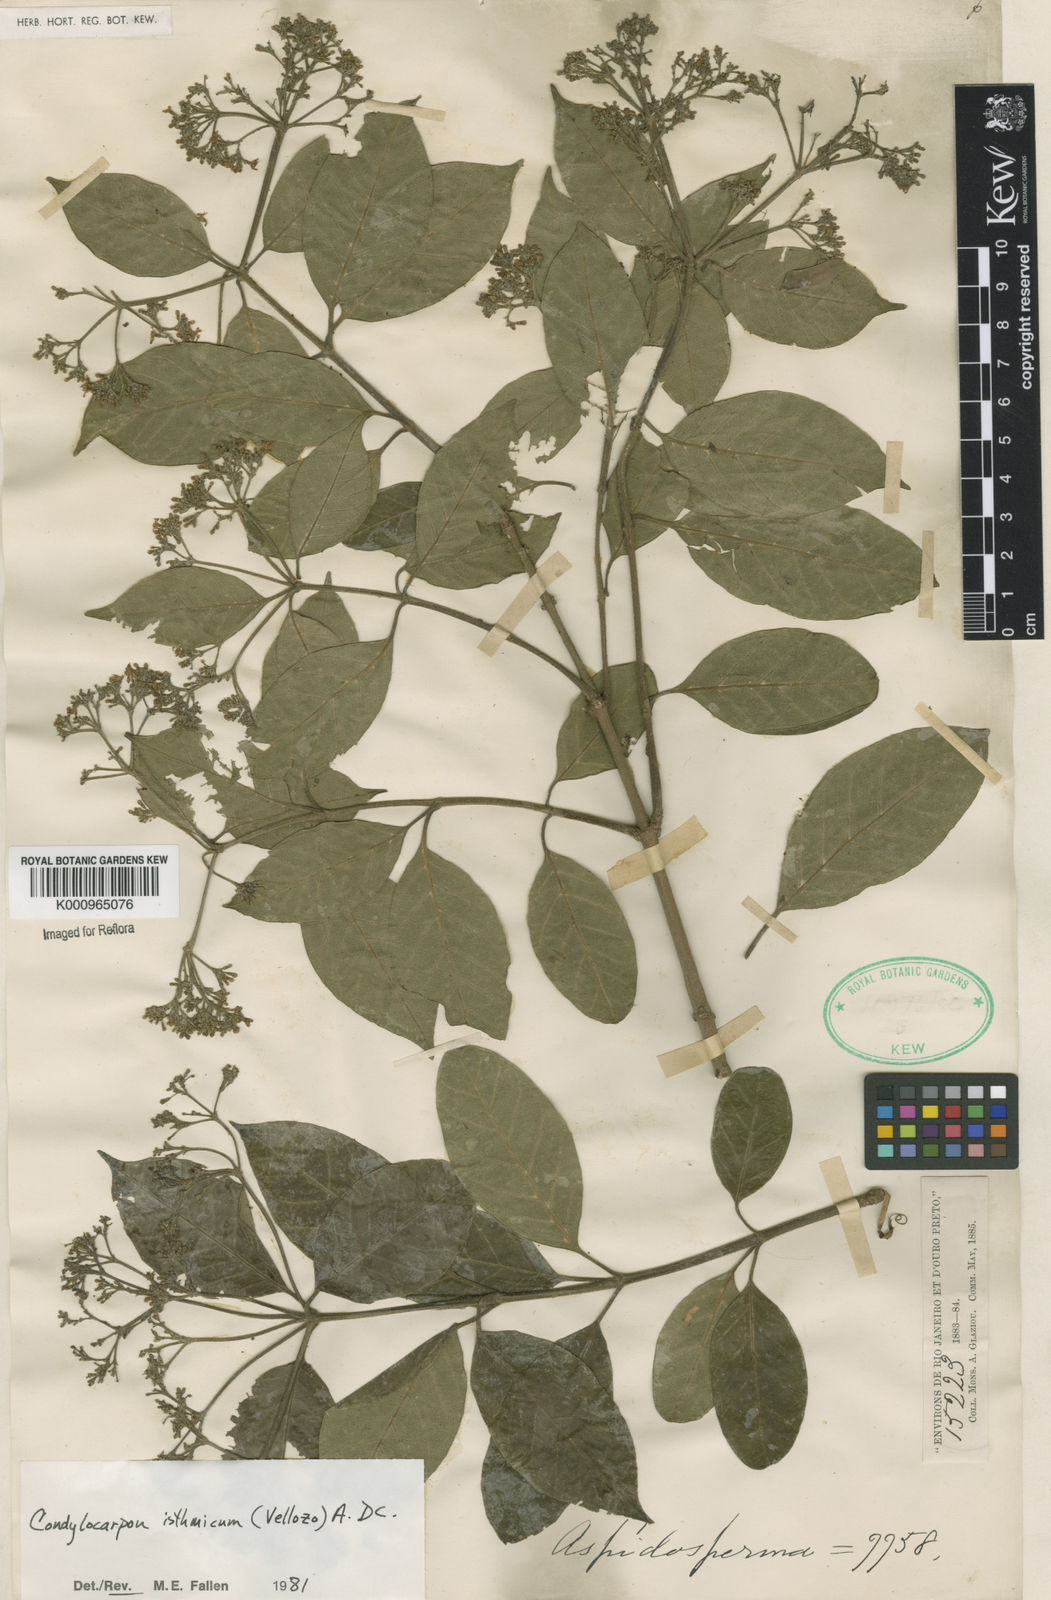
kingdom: Plantae
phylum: Tracheophyta
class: Magnoliopsida
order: Gentianales
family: Apocynaceae
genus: Condylocarpon
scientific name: Condylocarpon isthmicum
